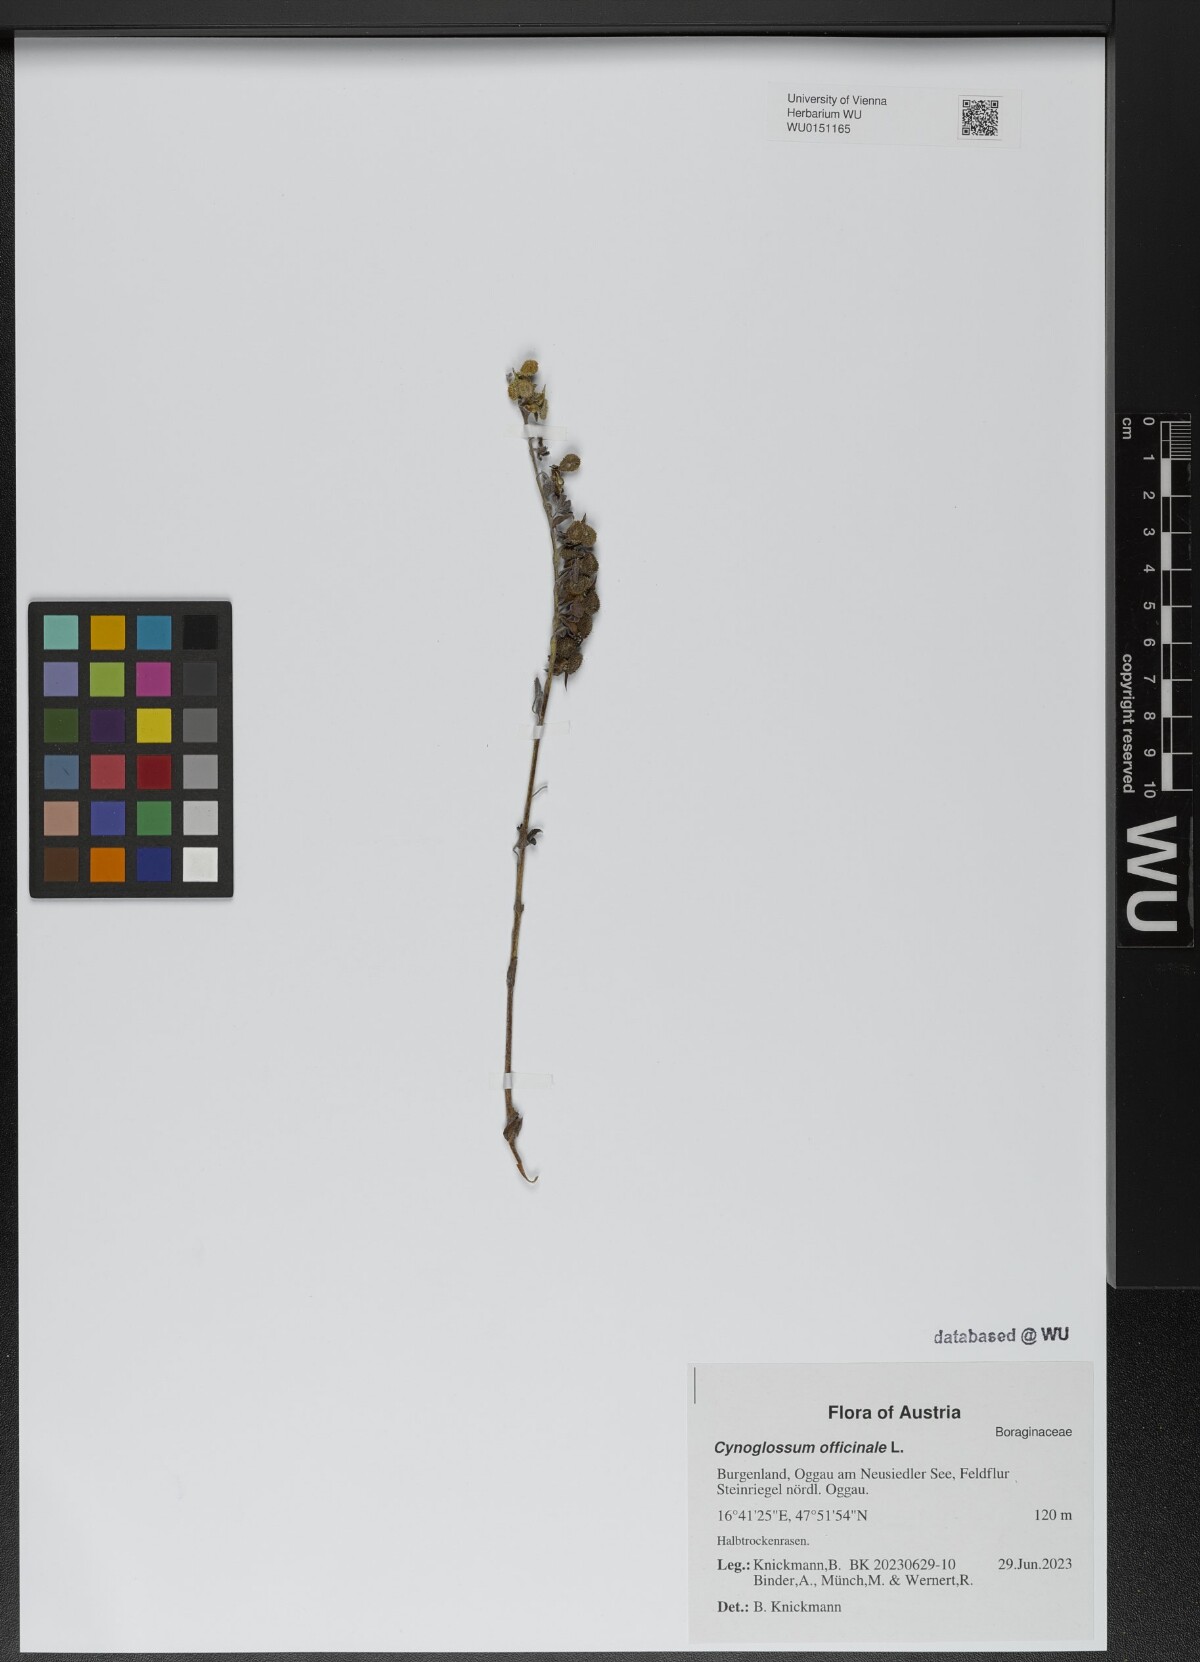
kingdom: Plantae
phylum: Tracheophyta
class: Magnoliopsida
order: Boraginales
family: Boraginaceae
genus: Cynoglossum
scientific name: Cynoglossum officinale
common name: Hound's-tongue
